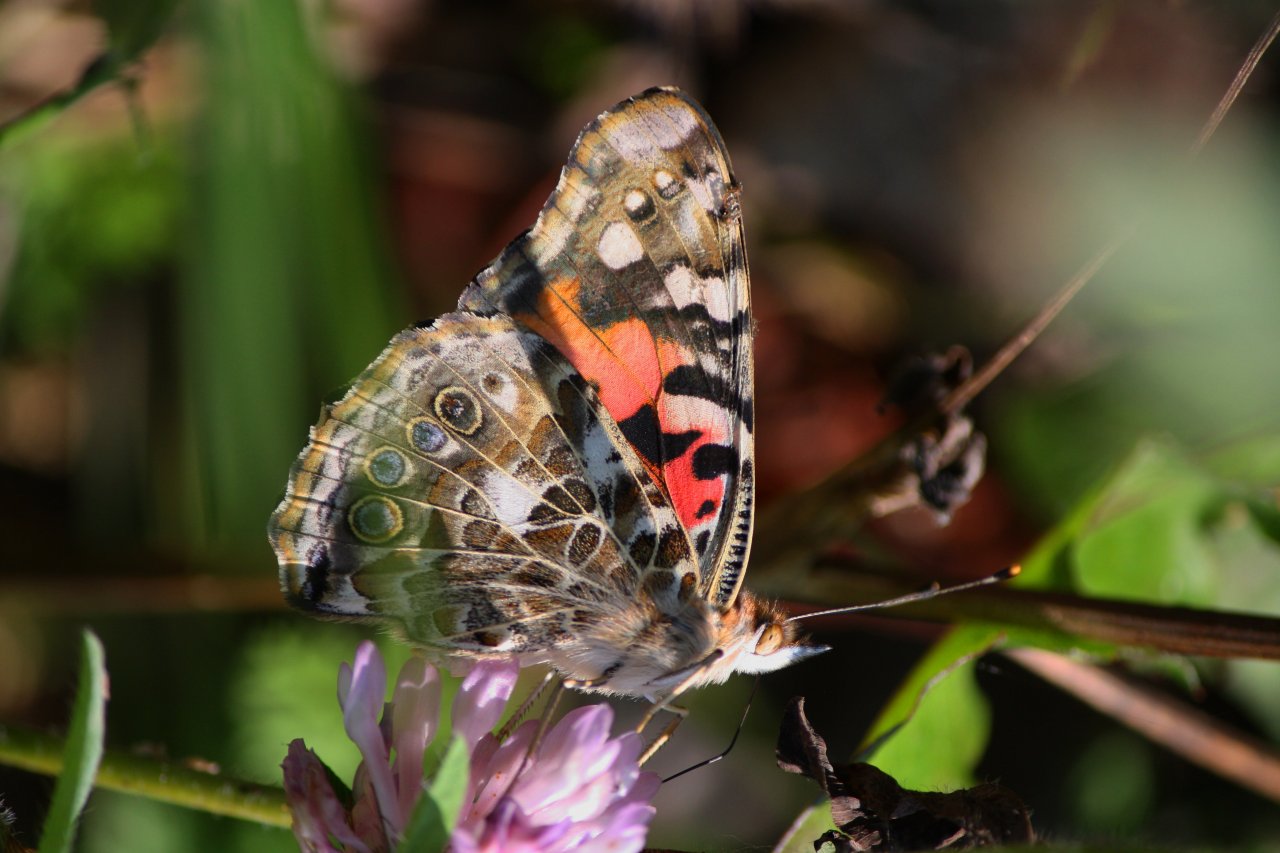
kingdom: Animalia
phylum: Arthropoda
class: Insecta
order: Lepidoptera
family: Nymphalidae
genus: Vanessa
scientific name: Vanessa cardui
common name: Painted Lady
